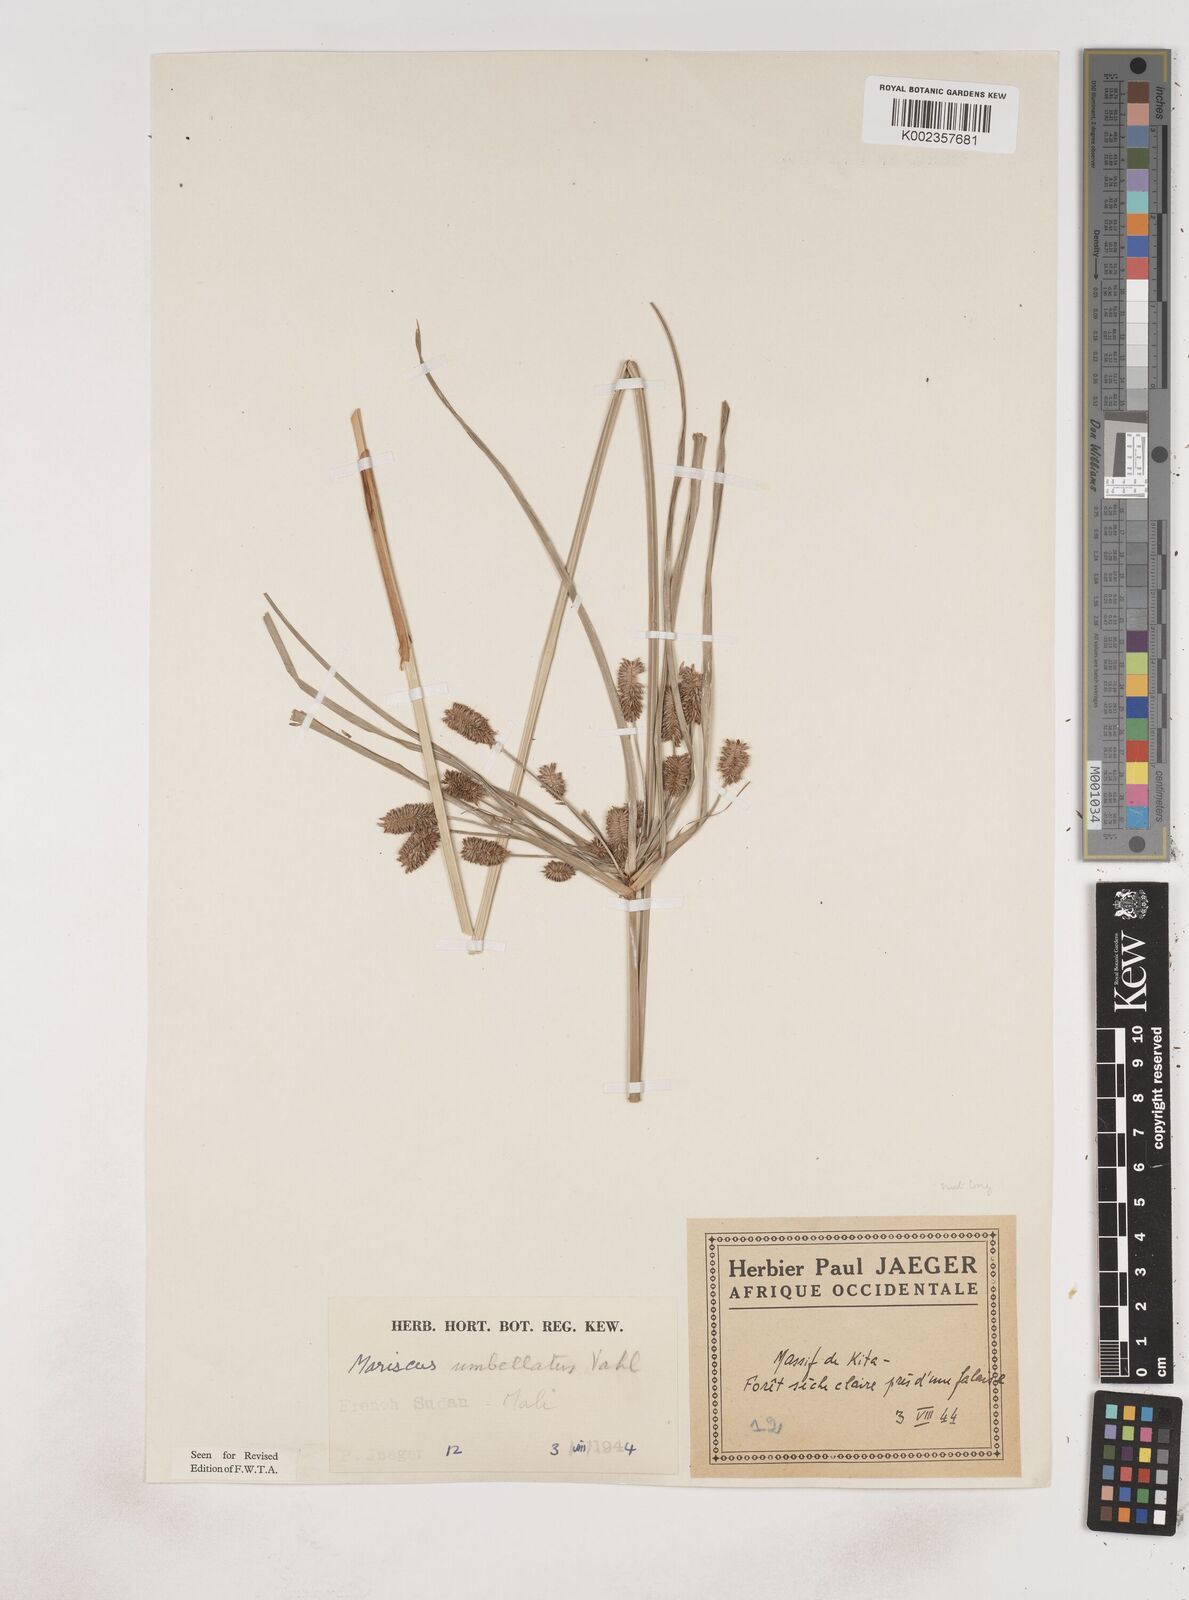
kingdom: Plantae
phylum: Tracheophyta
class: Liliopsida
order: Poales
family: Cyperaceae
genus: Cyperus
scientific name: Cyperus sublimis
